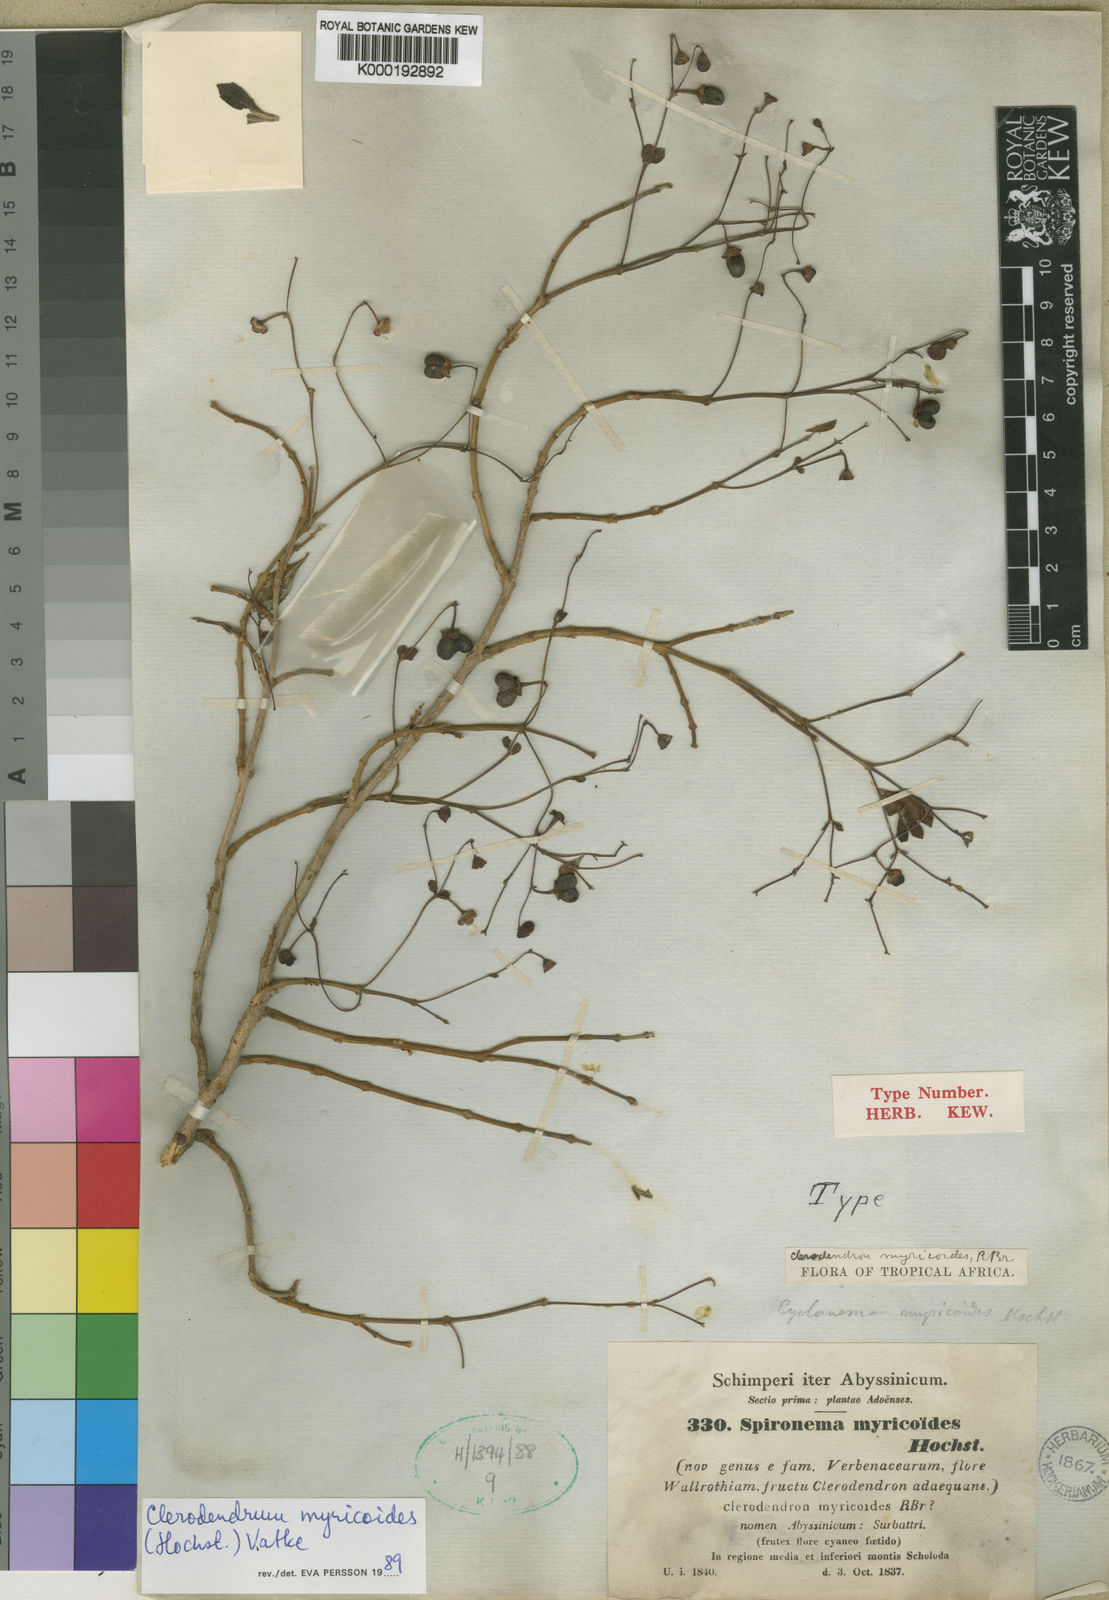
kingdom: Plantae
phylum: Tracheophyta
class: Magnoliopsida
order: Lamiales
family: Lamiaceae
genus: Rotheca
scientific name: Rotheca myricoides
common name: Cats-whiskers
